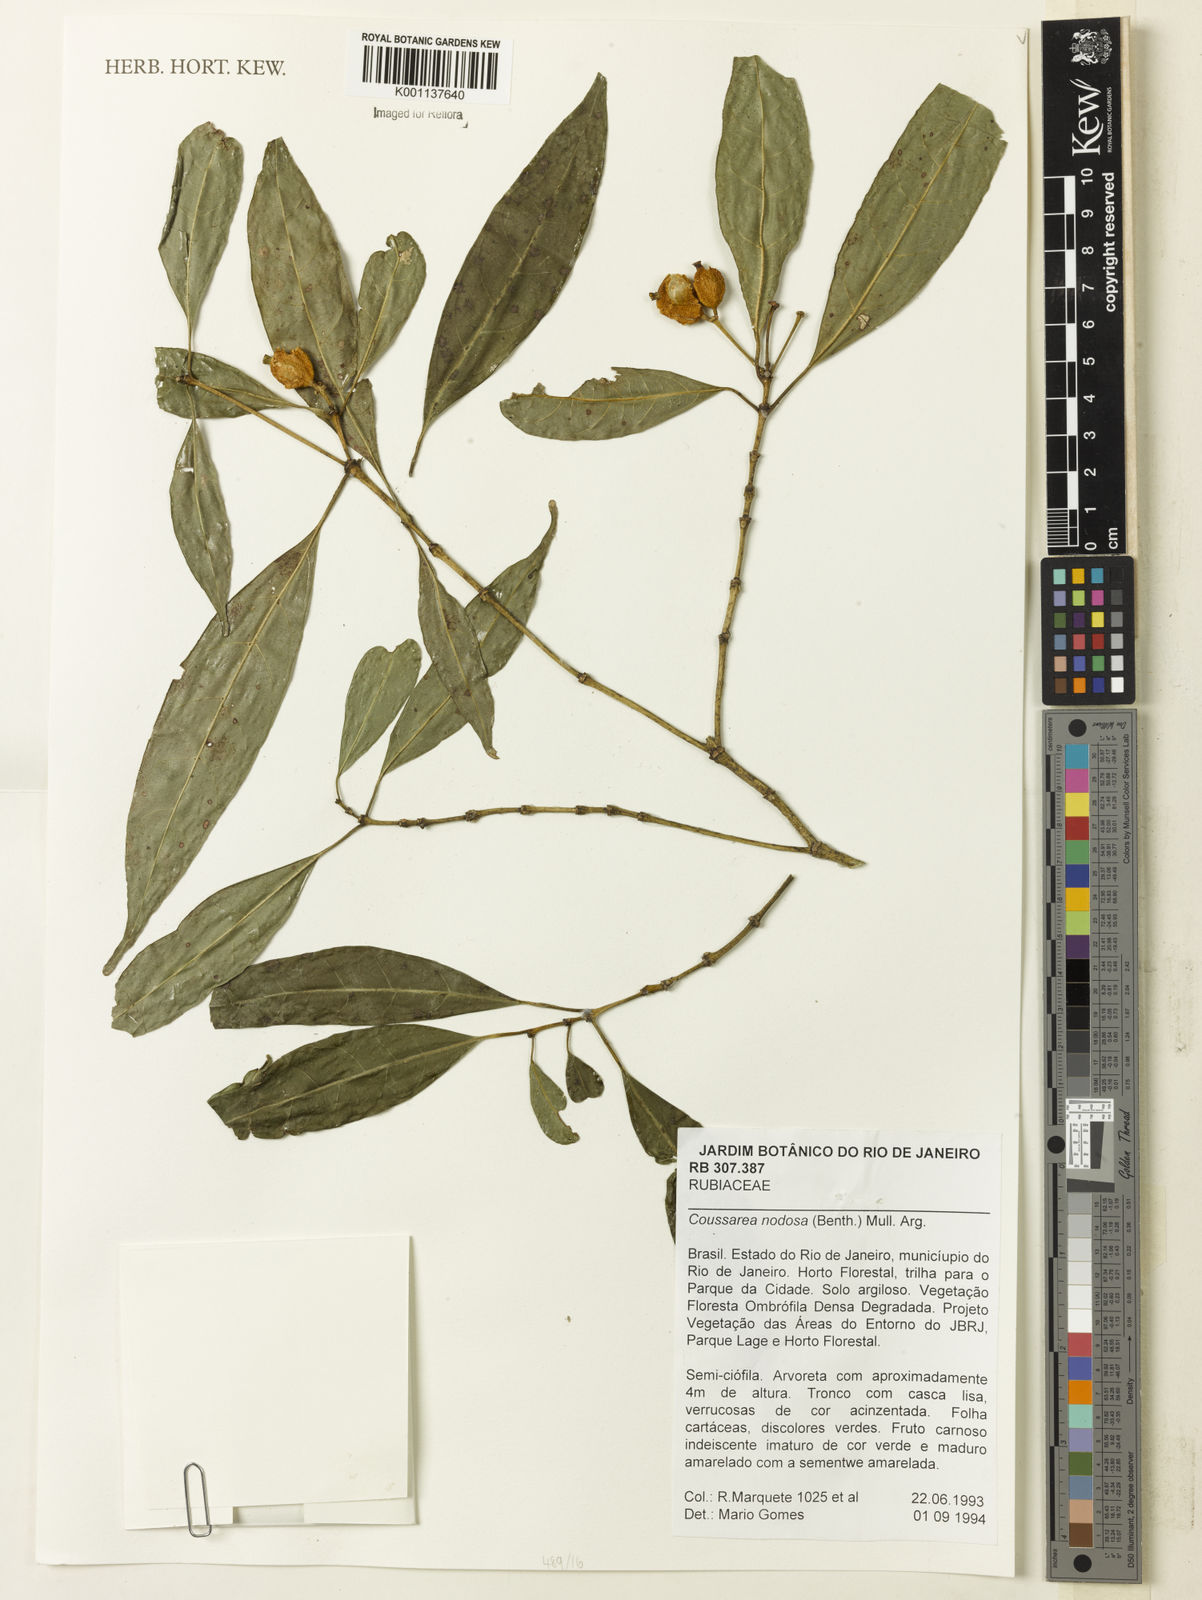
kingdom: Plantae
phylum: Tracheophyta
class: Magnoliopsida
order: Gentianales
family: Rubiaceae
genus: Coussarea
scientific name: Coussarea
